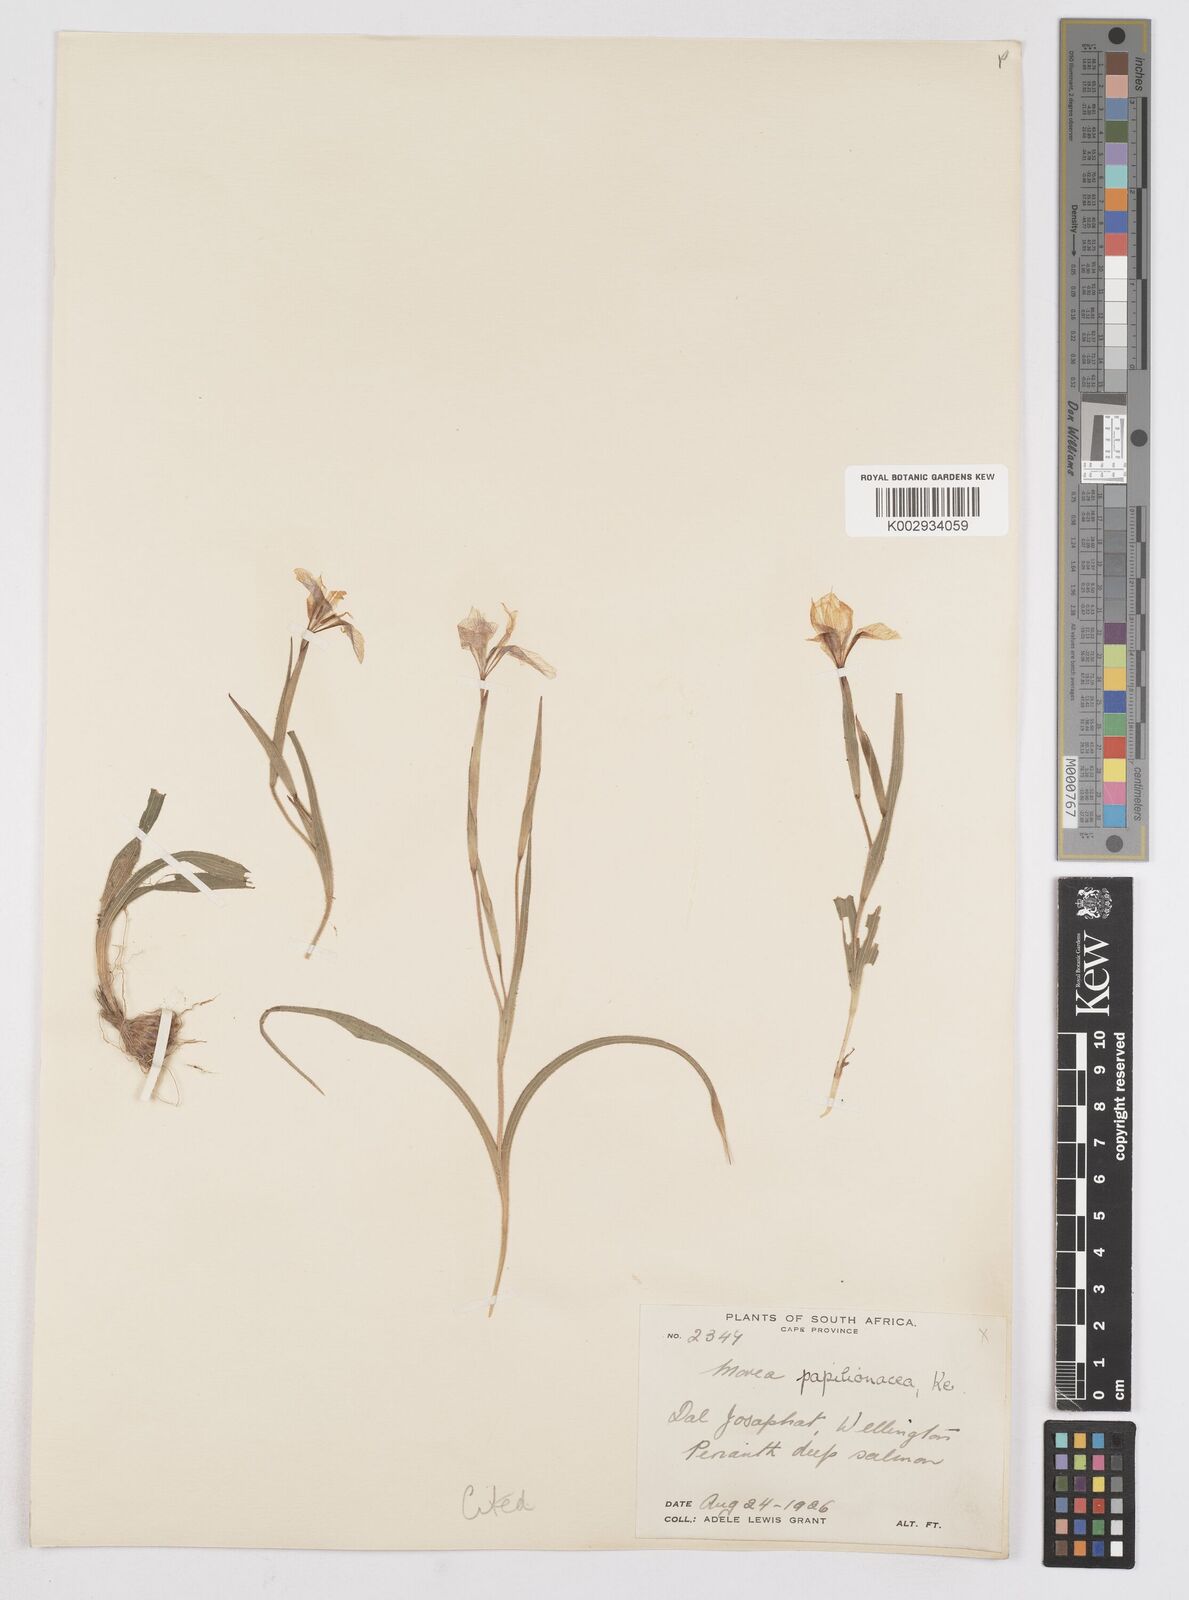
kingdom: Plantae
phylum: Tracheophyta
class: Liliopsida
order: Asparagales
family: Iridaceae
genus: Moraea
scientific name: Moraea papilionacea
